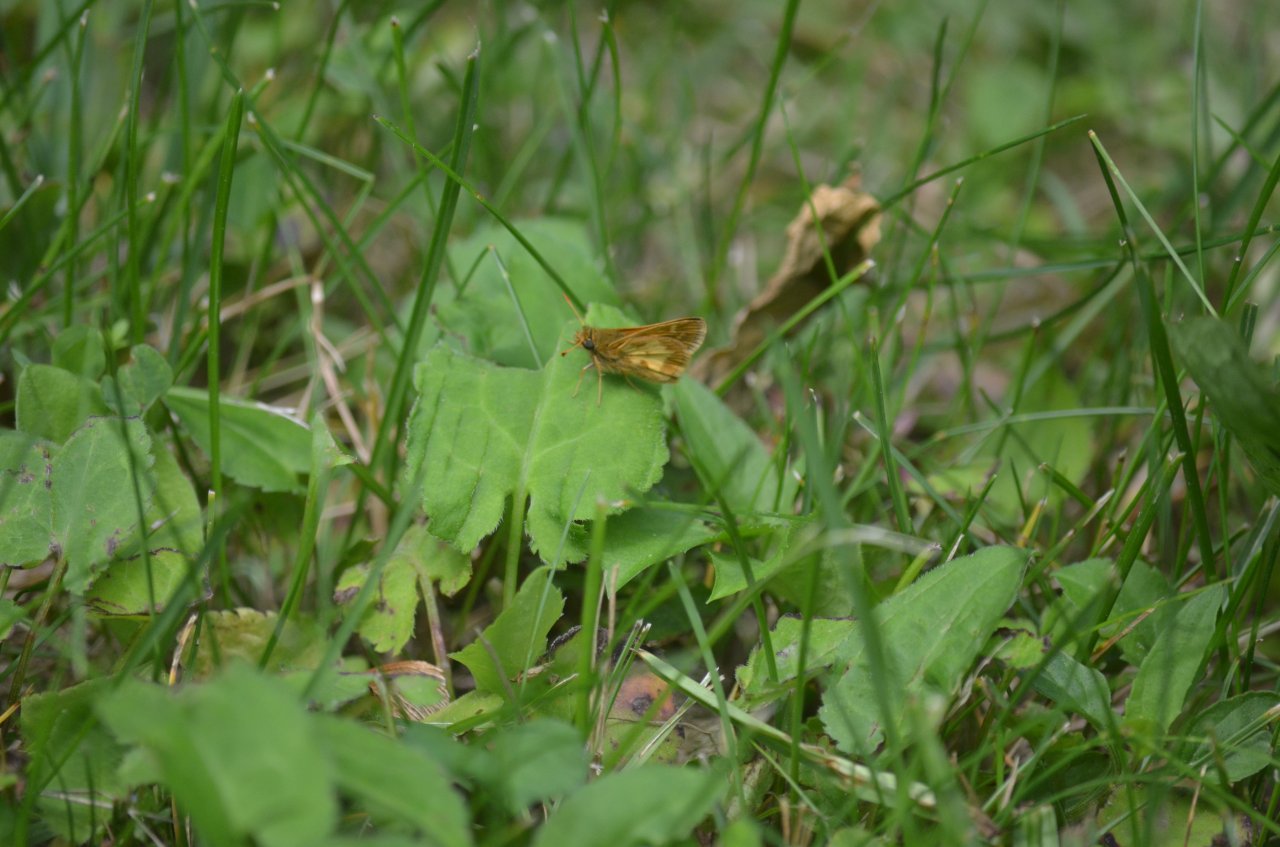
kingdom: Animalia
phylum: Arthropoda
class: Insecta
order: Lepidoptera
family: Hesperiidae
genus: Polites
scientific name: Polites coras
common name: Peck's Skipper
